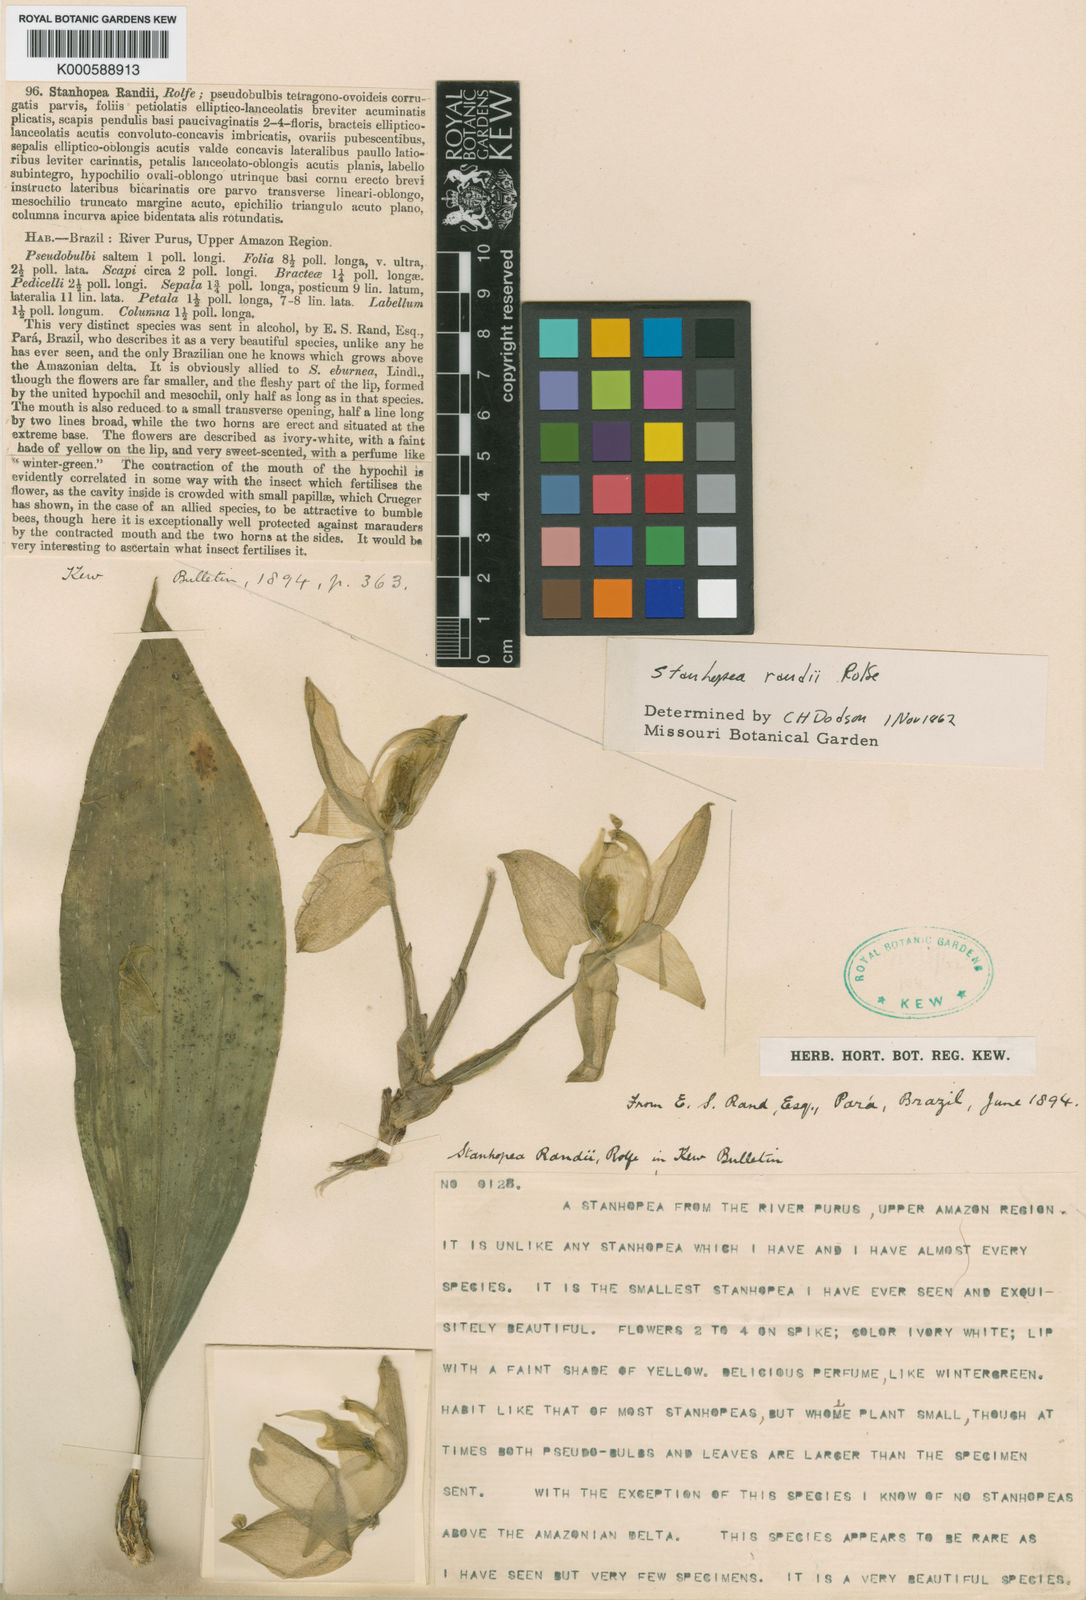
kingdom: Plantae
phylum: Tracheophyta
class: Liliopsida
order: Asparagales
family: Orchidaceae
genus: Stanhopea
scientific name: Stanhopea candida
